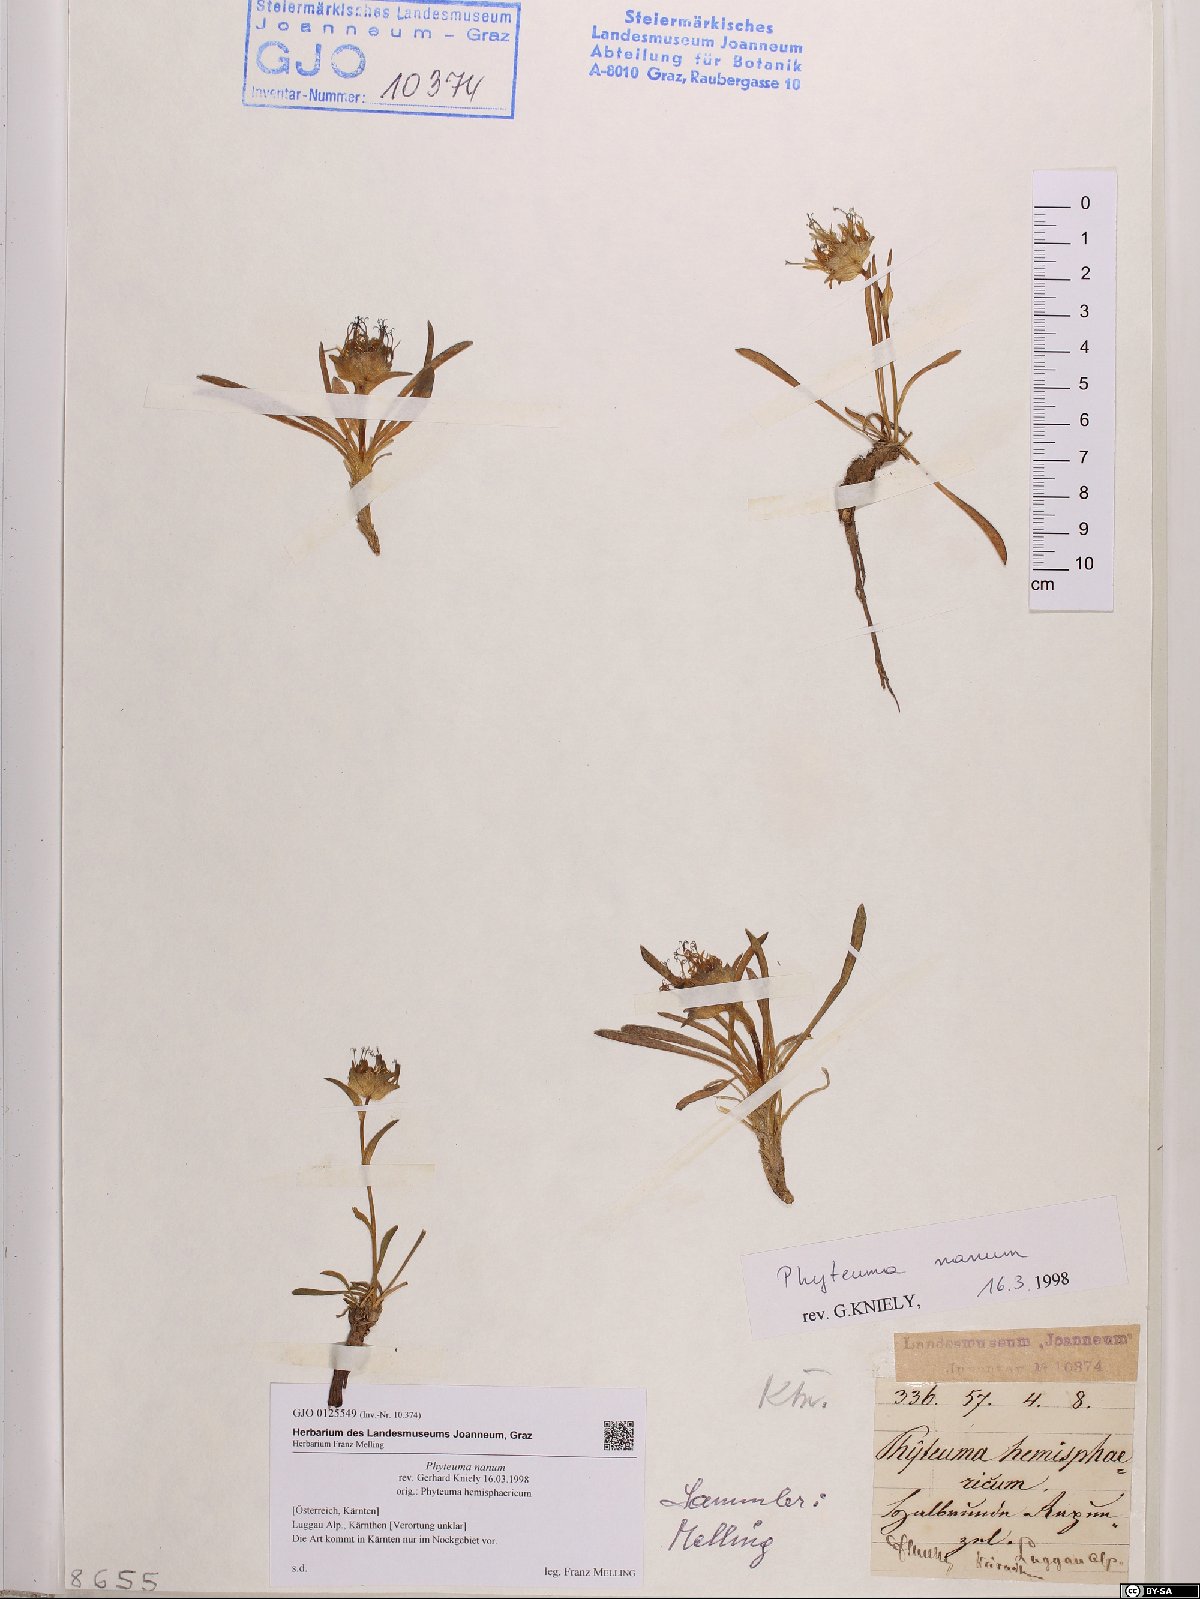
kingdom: Plantae
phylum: Tracheophyta
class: Magnoliopsida
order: Asterales
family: Campanulaceae
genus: Phyteuma
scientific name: Phyteuma globulariifolium
